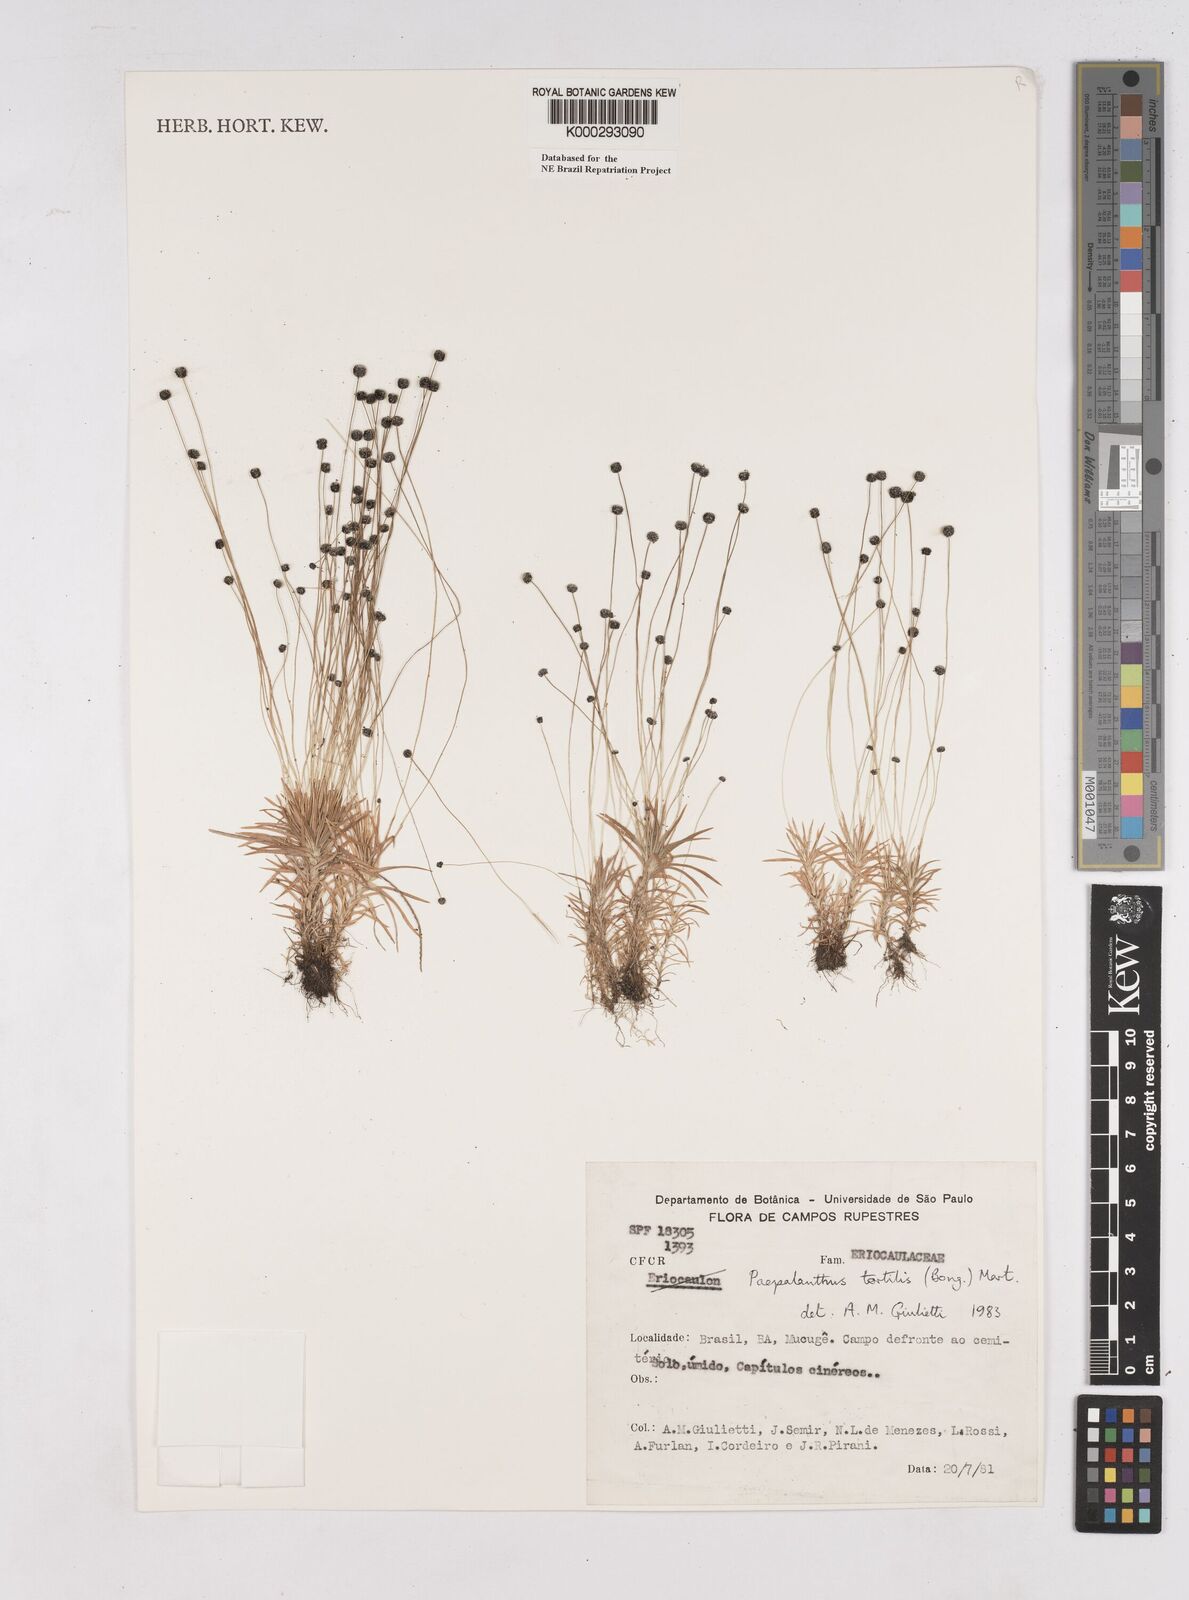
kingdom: Plantae
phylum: Tracheophyta
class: Liliopsida
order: Poales
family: Eriocaulaceae
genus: Paepalanthus
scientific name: Paepalanthus
